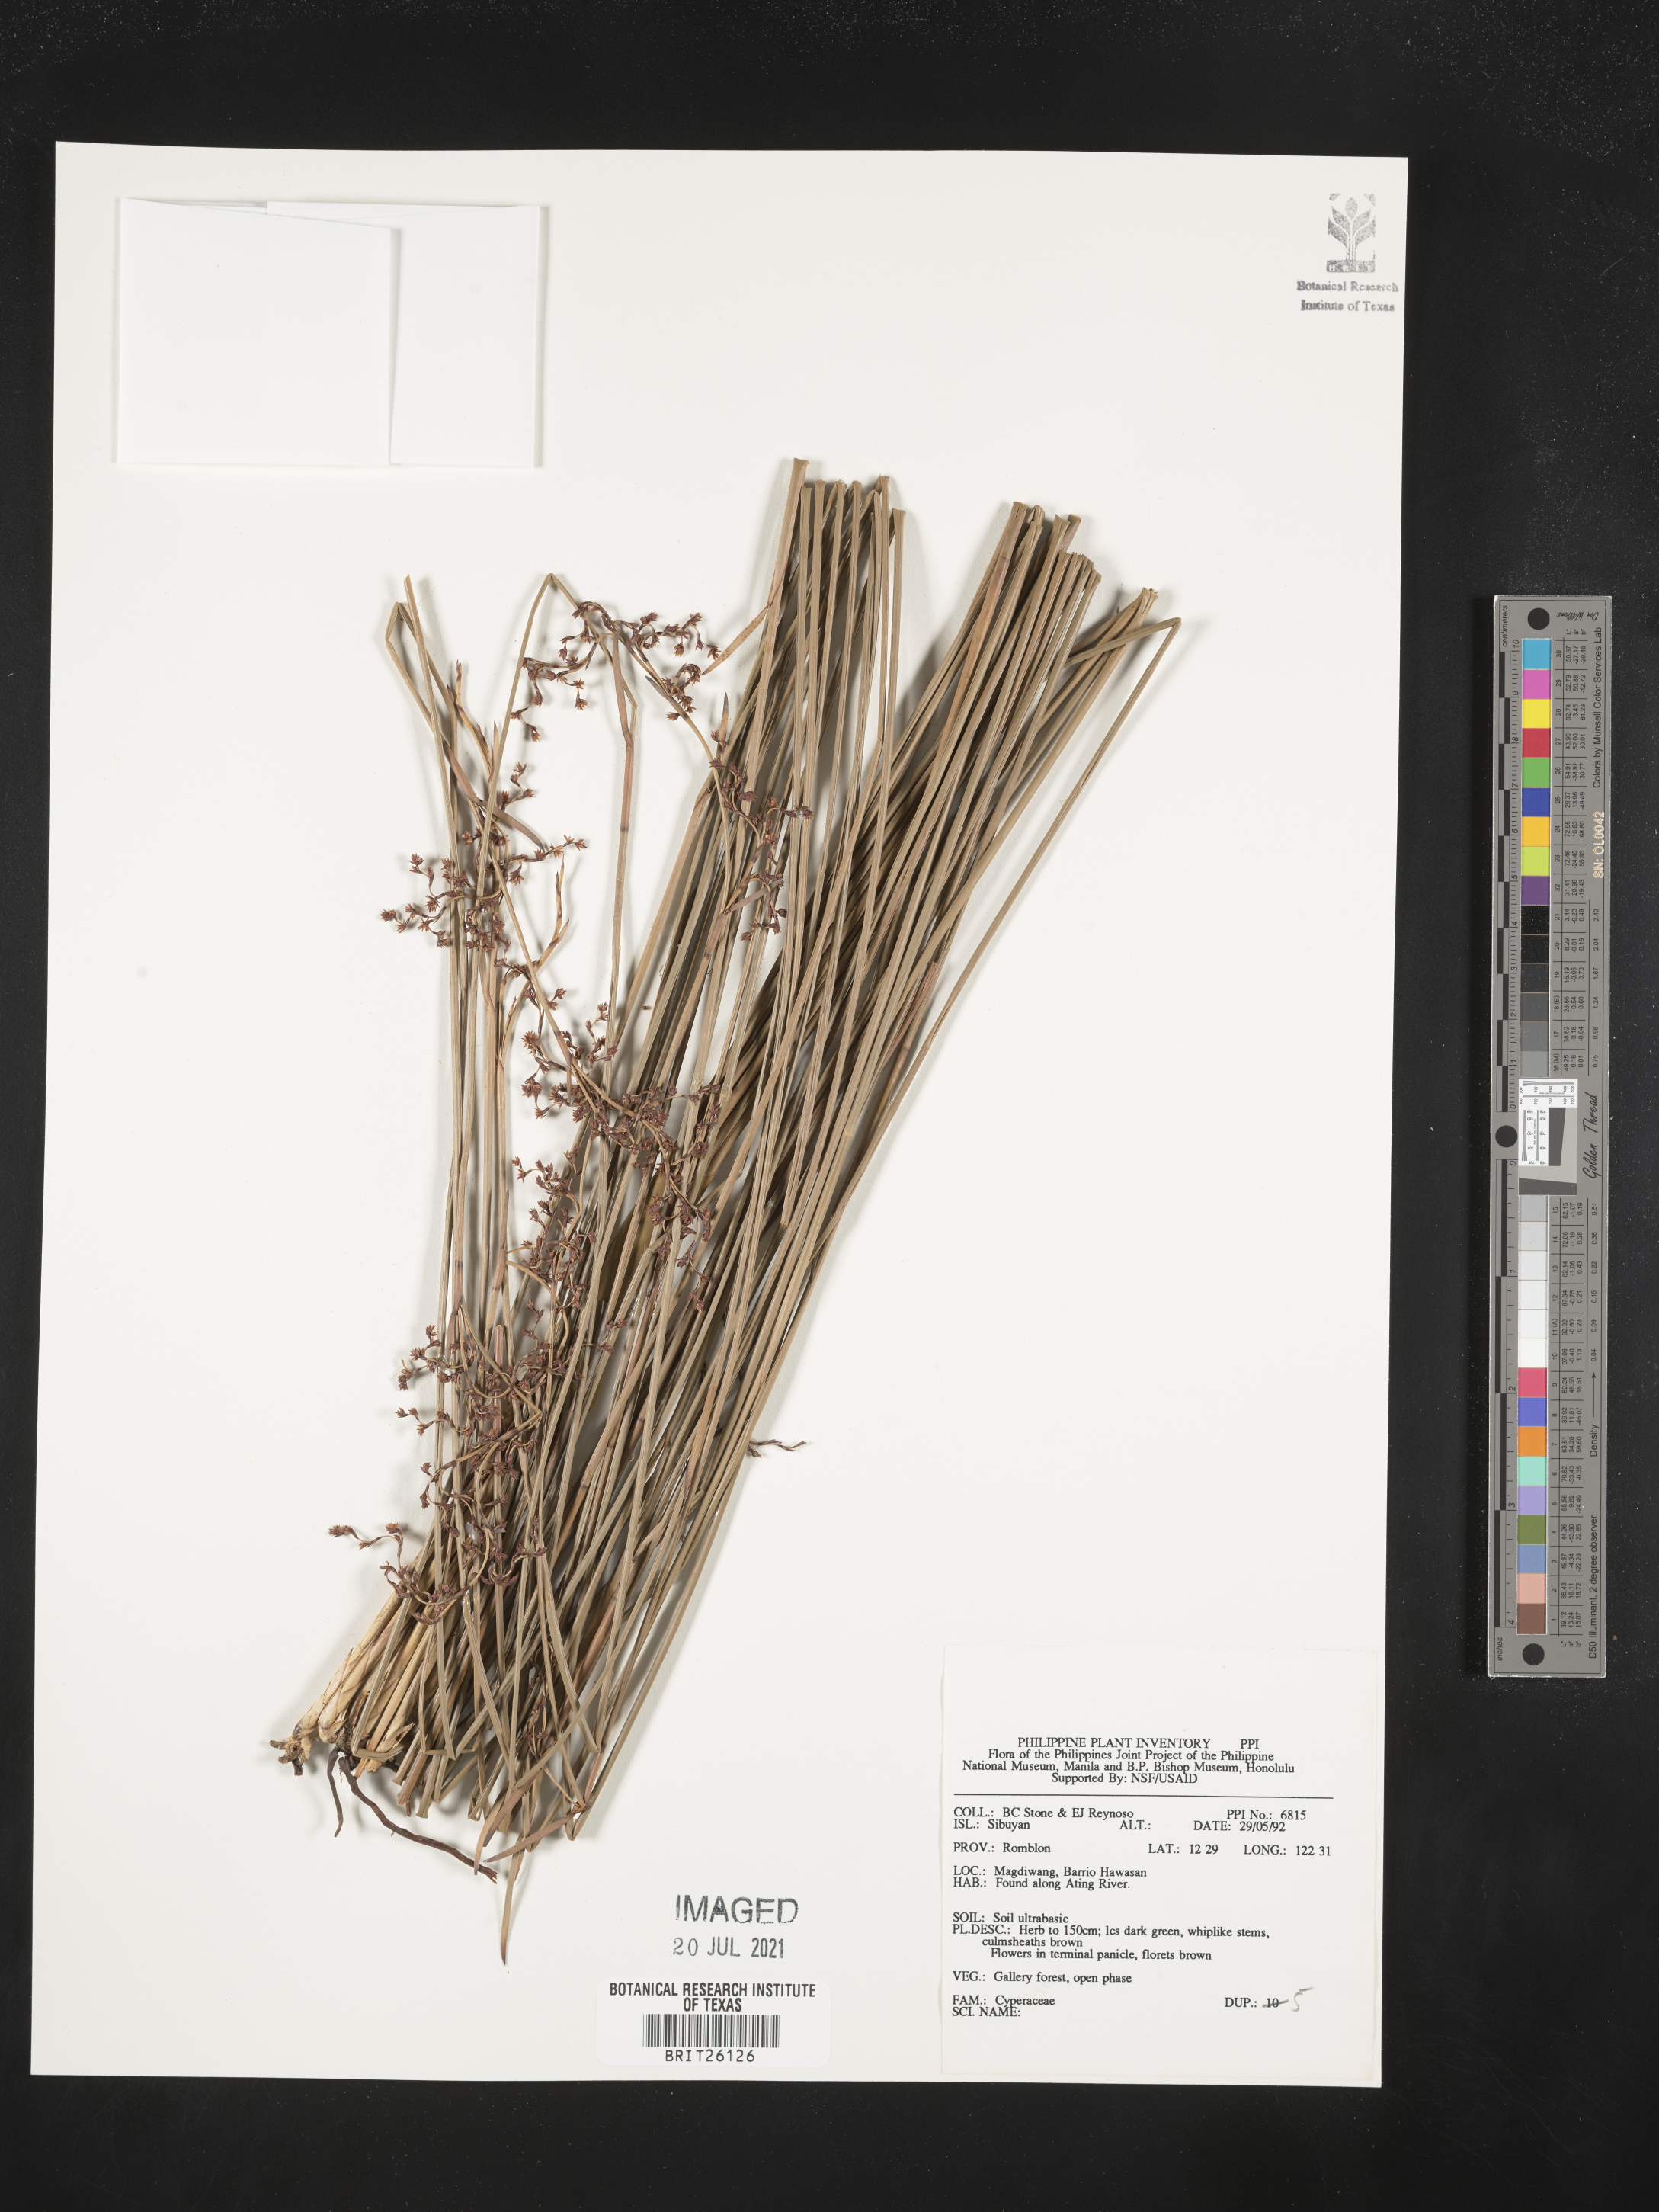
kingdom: Plantae
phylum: Tracheophyta
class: Liliopsida
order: Poales
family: Cyperaceae
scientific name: Cyperaceae
